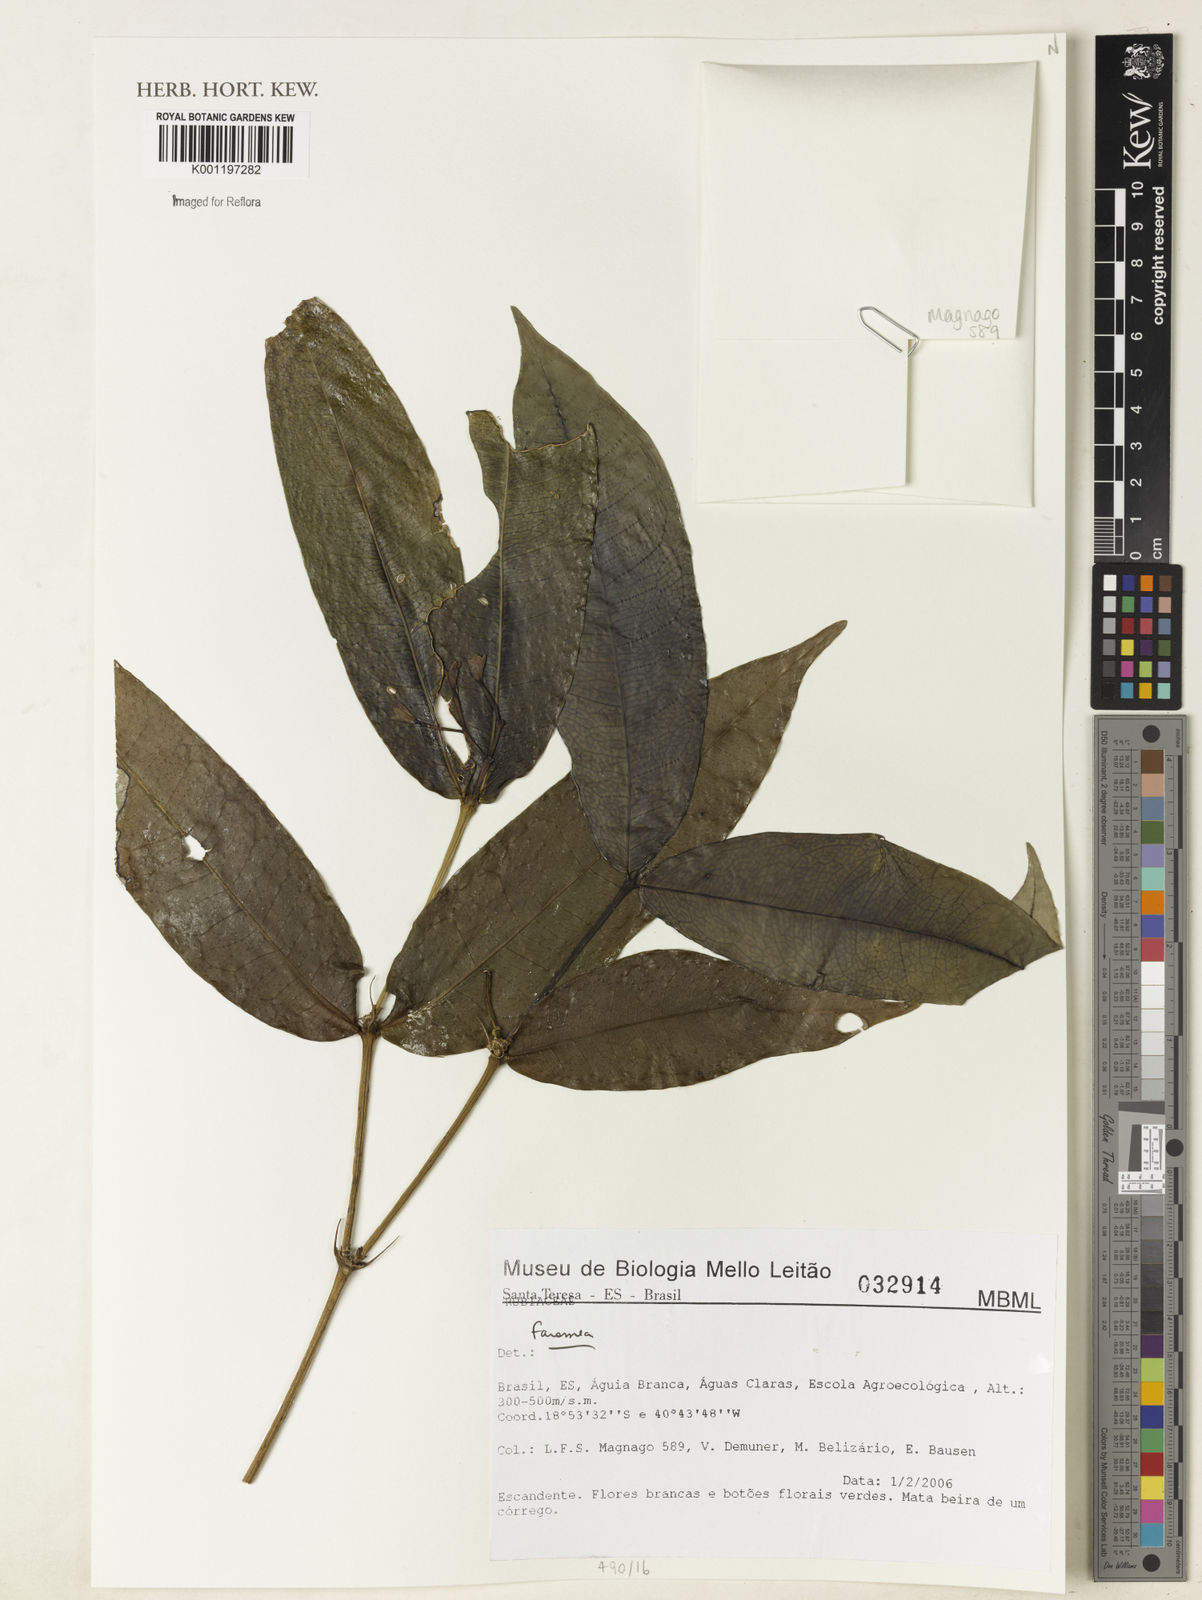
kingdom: Plantae
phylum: Tracheophyta
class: Magnoliopsida
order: Gentianales
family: Rubiaceae
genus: Faramea
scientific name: Faramea
